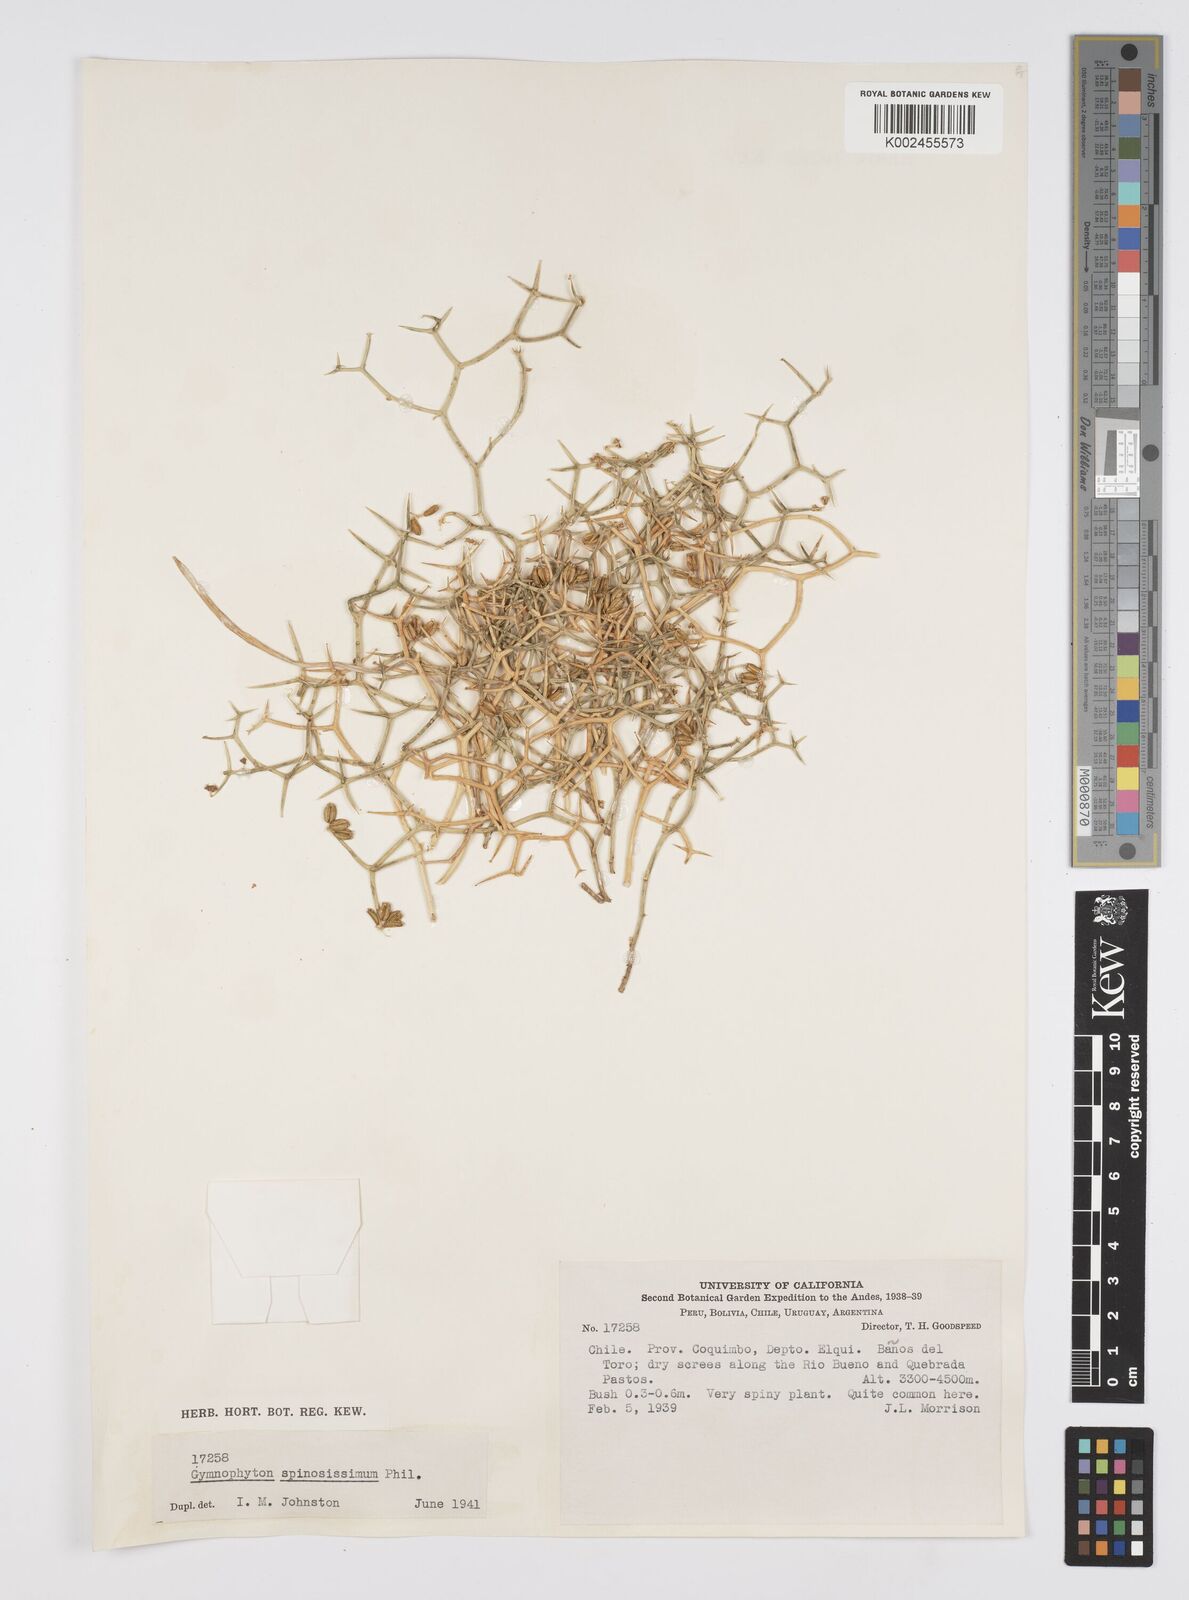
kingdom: Plantae
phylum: Tracheophyta
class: Magnoliopsida
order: Apiales
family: Apiaceae
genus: Gymnophyton
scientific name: Gymnophyton spinosissimum
